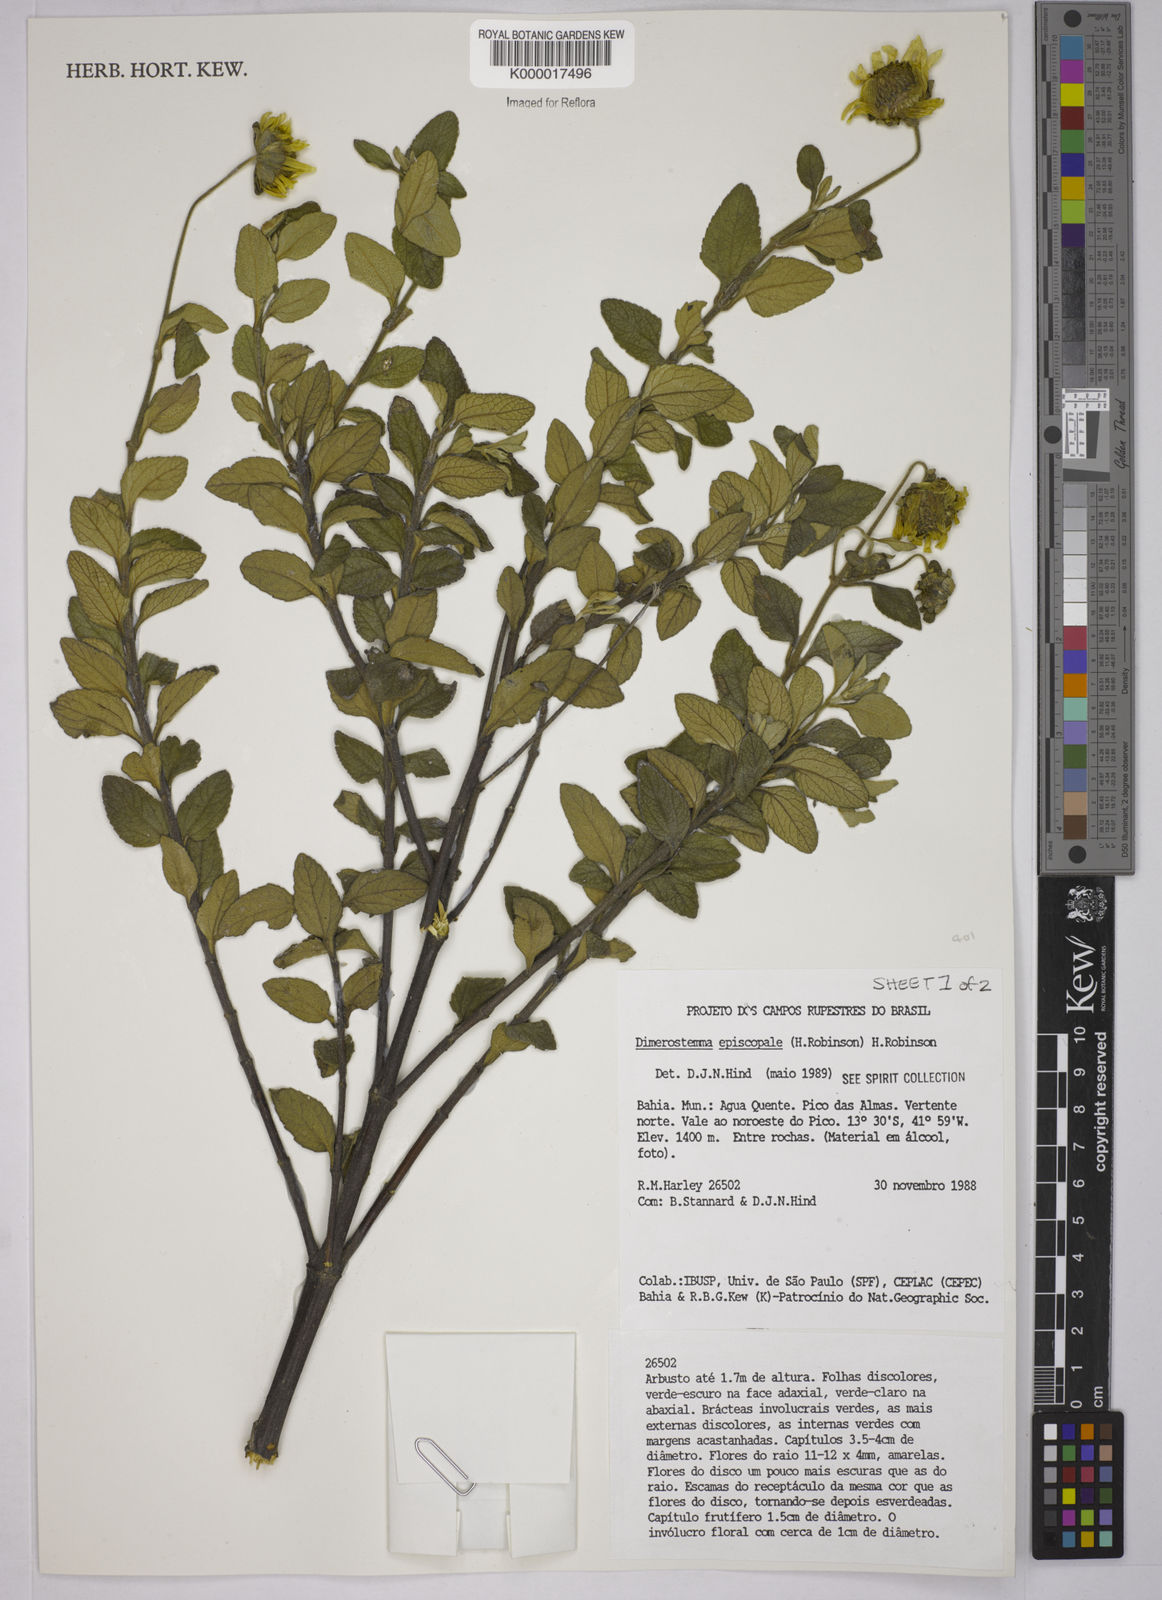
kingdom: Plantae
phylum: Tracheophyta
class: Magnoliopsida
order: Asterales
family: Asteraceae
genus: Dimerostemma
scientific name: Dimerostemma episcopale
